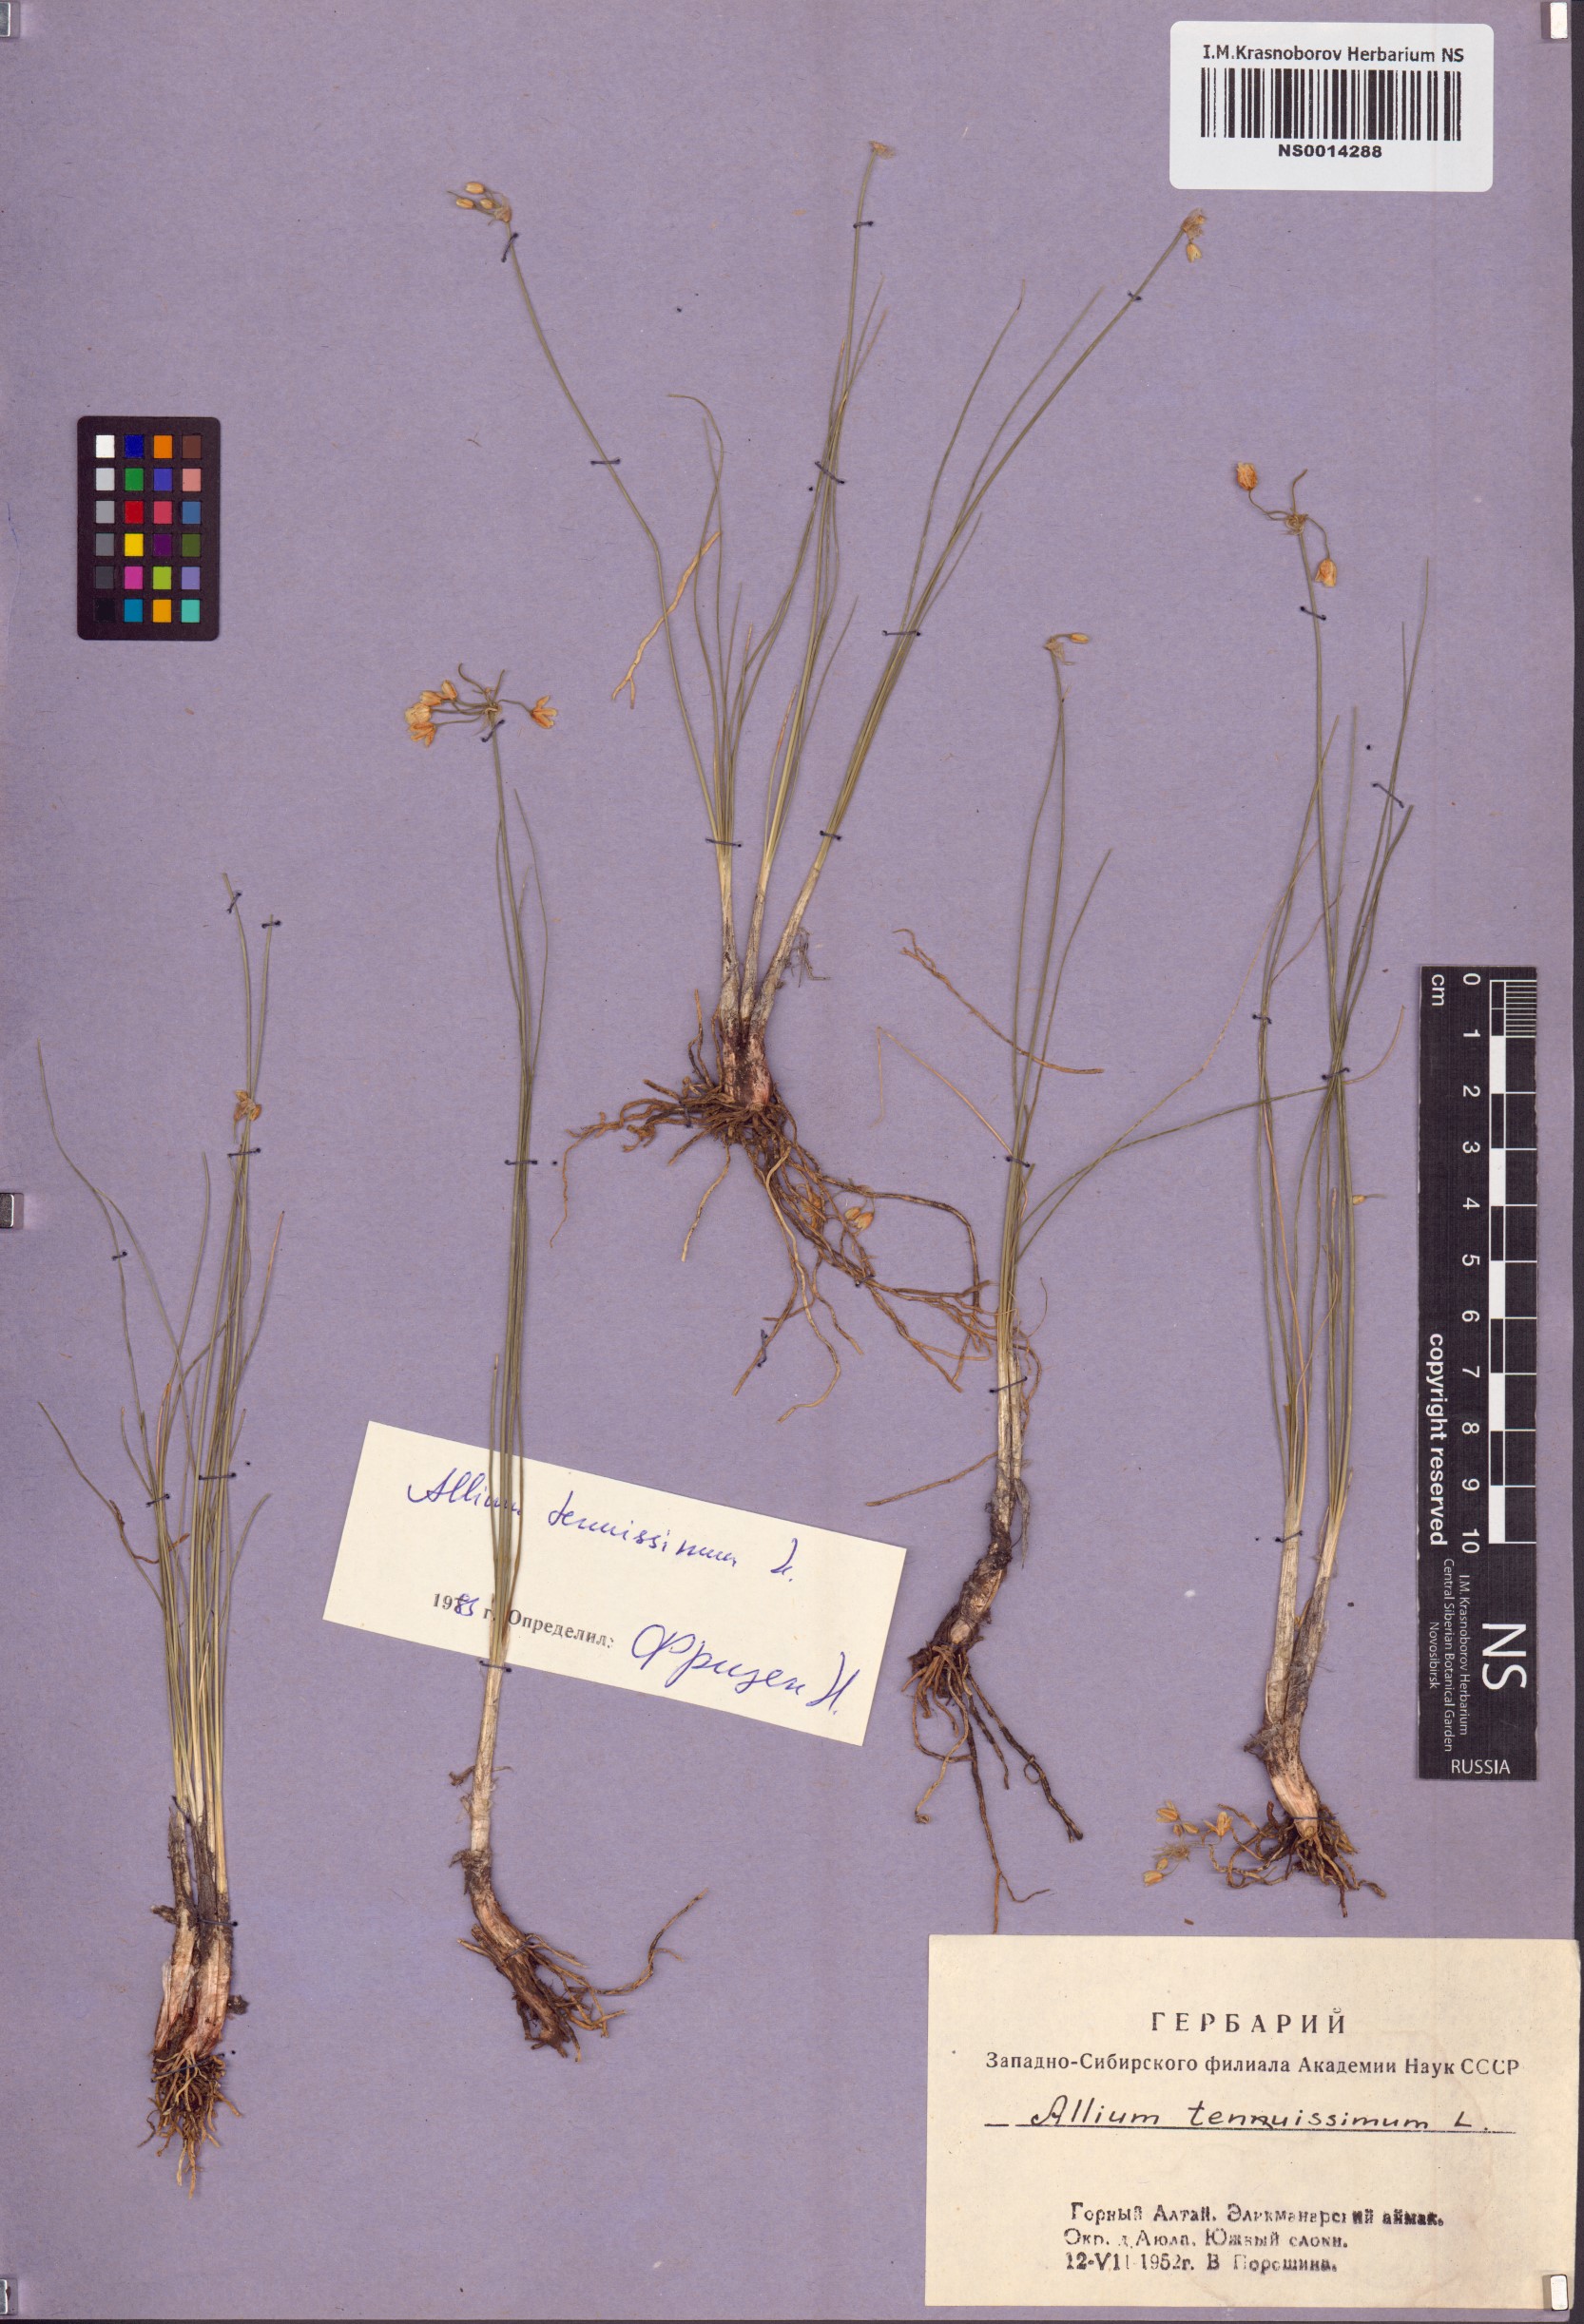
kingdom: Plantae
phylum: Tracheophyta
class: Liliopsida
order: Asparagales
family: Amaryllidaceae
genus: Allium
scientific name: Allium tenuissimum
